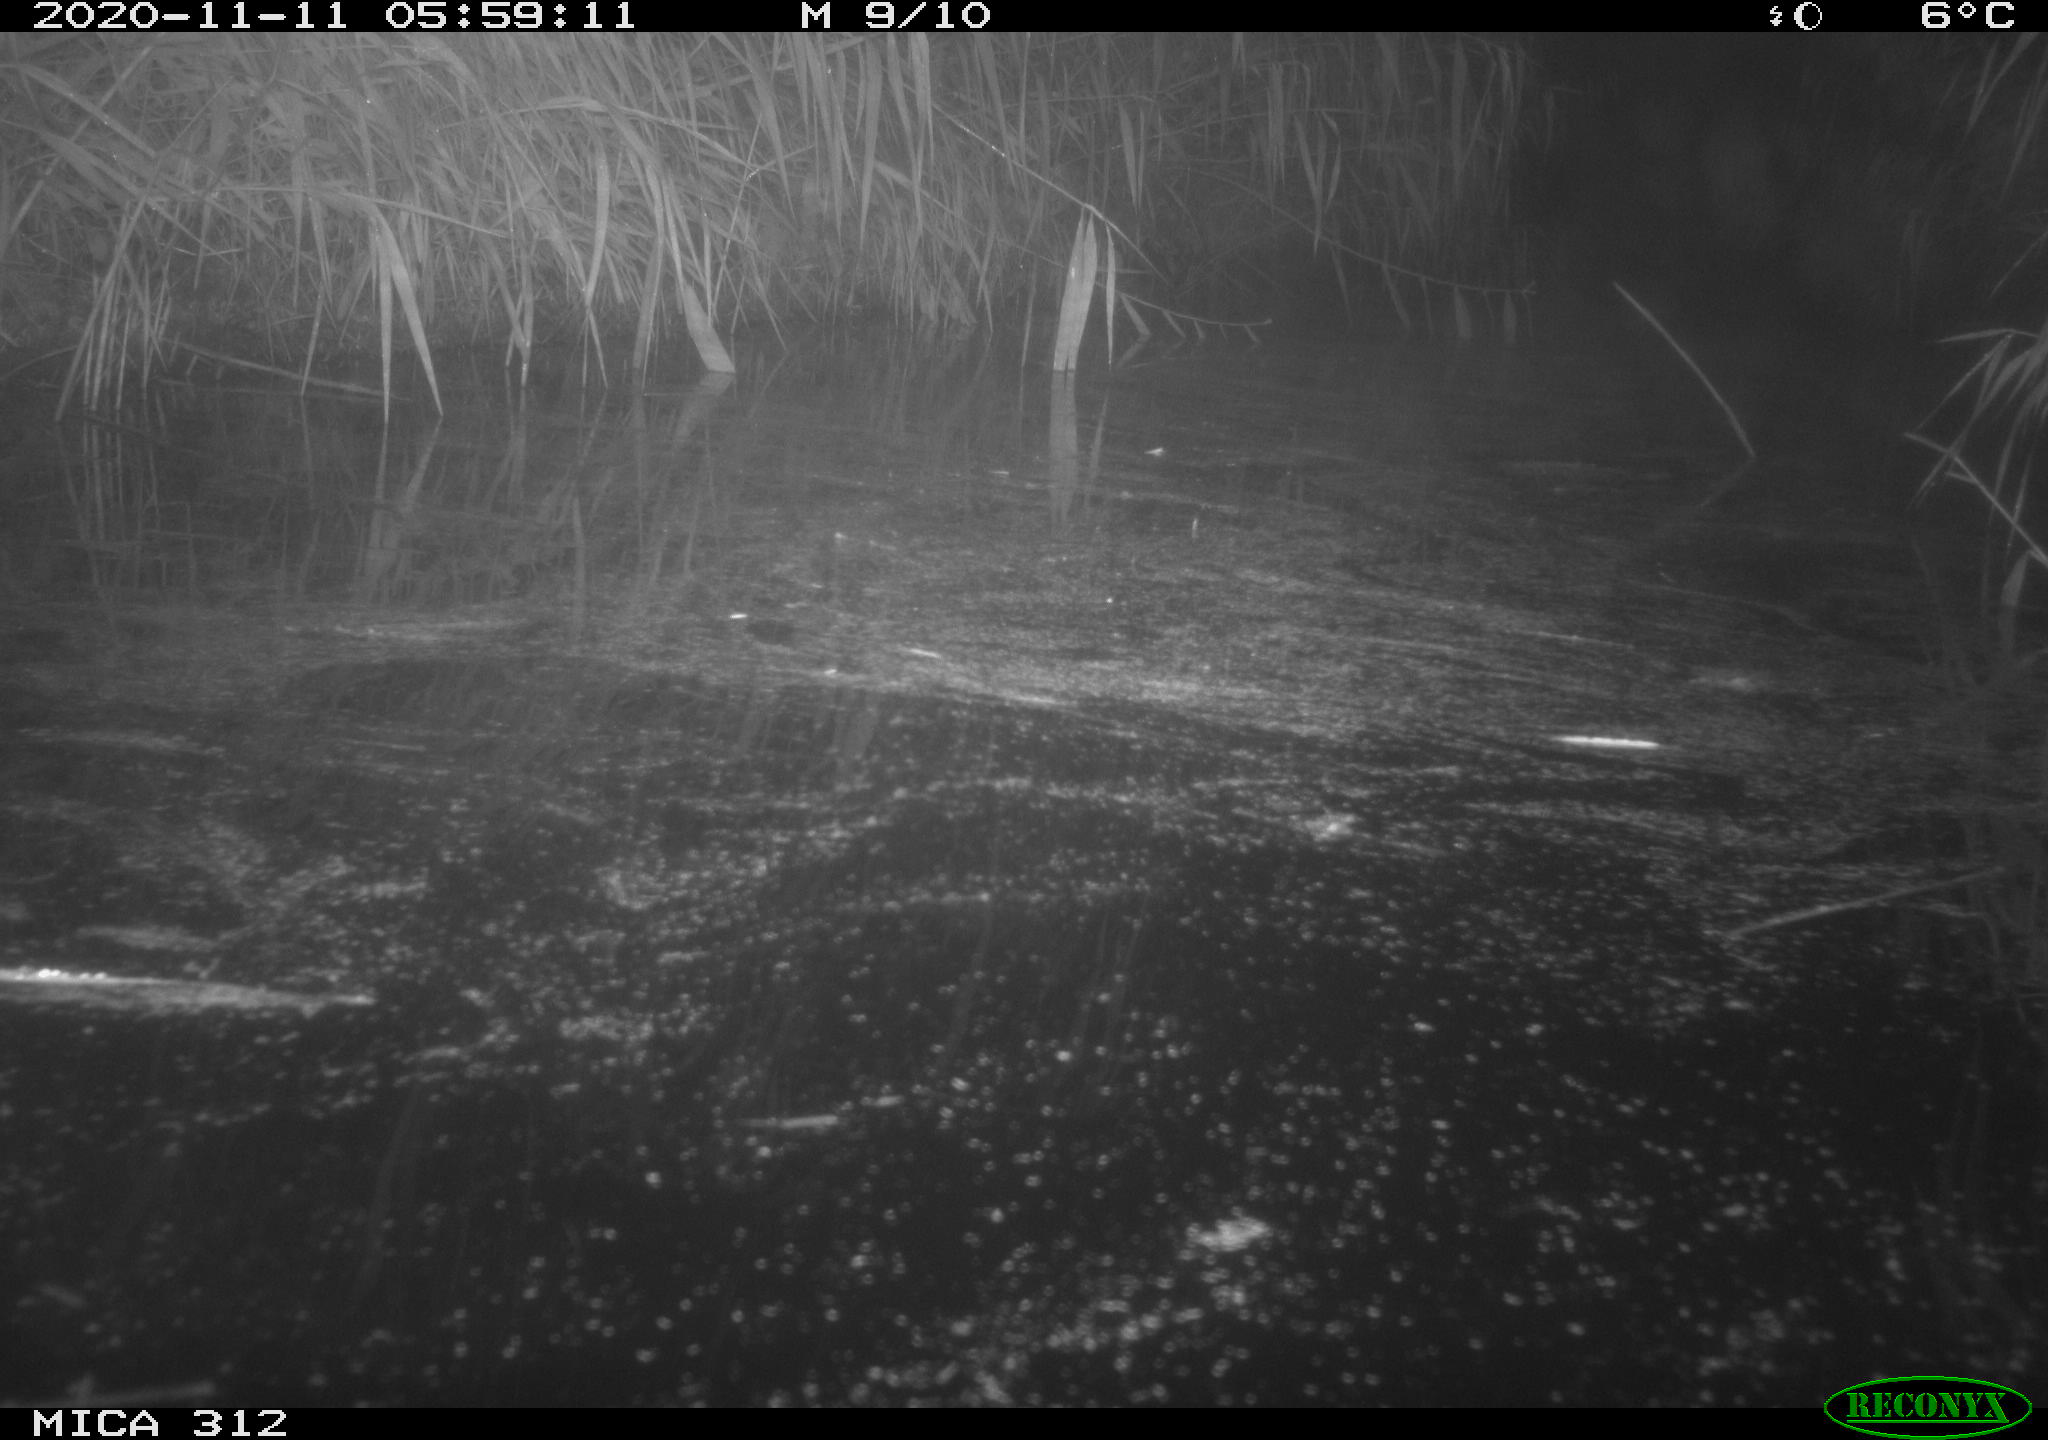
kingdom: Animalia
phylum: Chordata
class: Mammalia
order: Rodentia
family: Muridae
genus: Rattus
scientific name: Rattus norvegicus
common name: Brown rat
